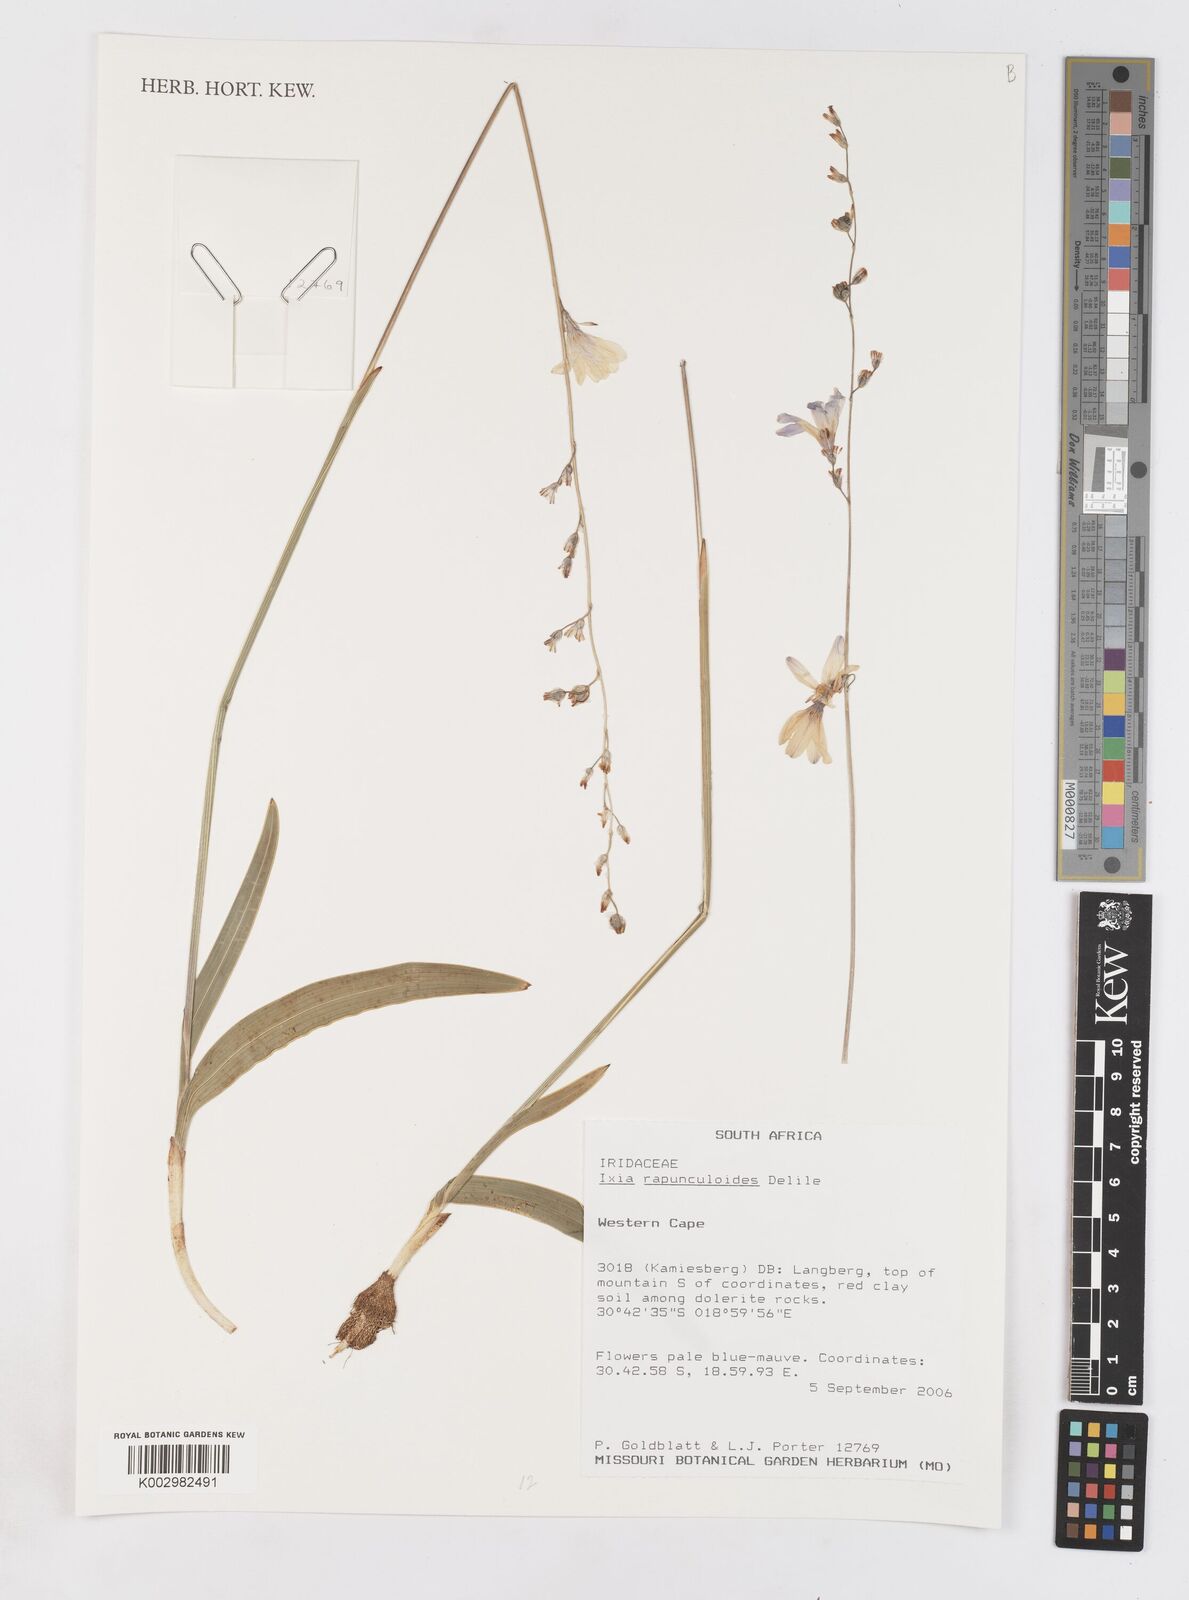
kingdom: Plantae
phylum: Tracheophyta
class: Liliopsida
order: Asparagales
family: Iridaceae
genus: Ixia
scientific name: Ixia rapunculoides
